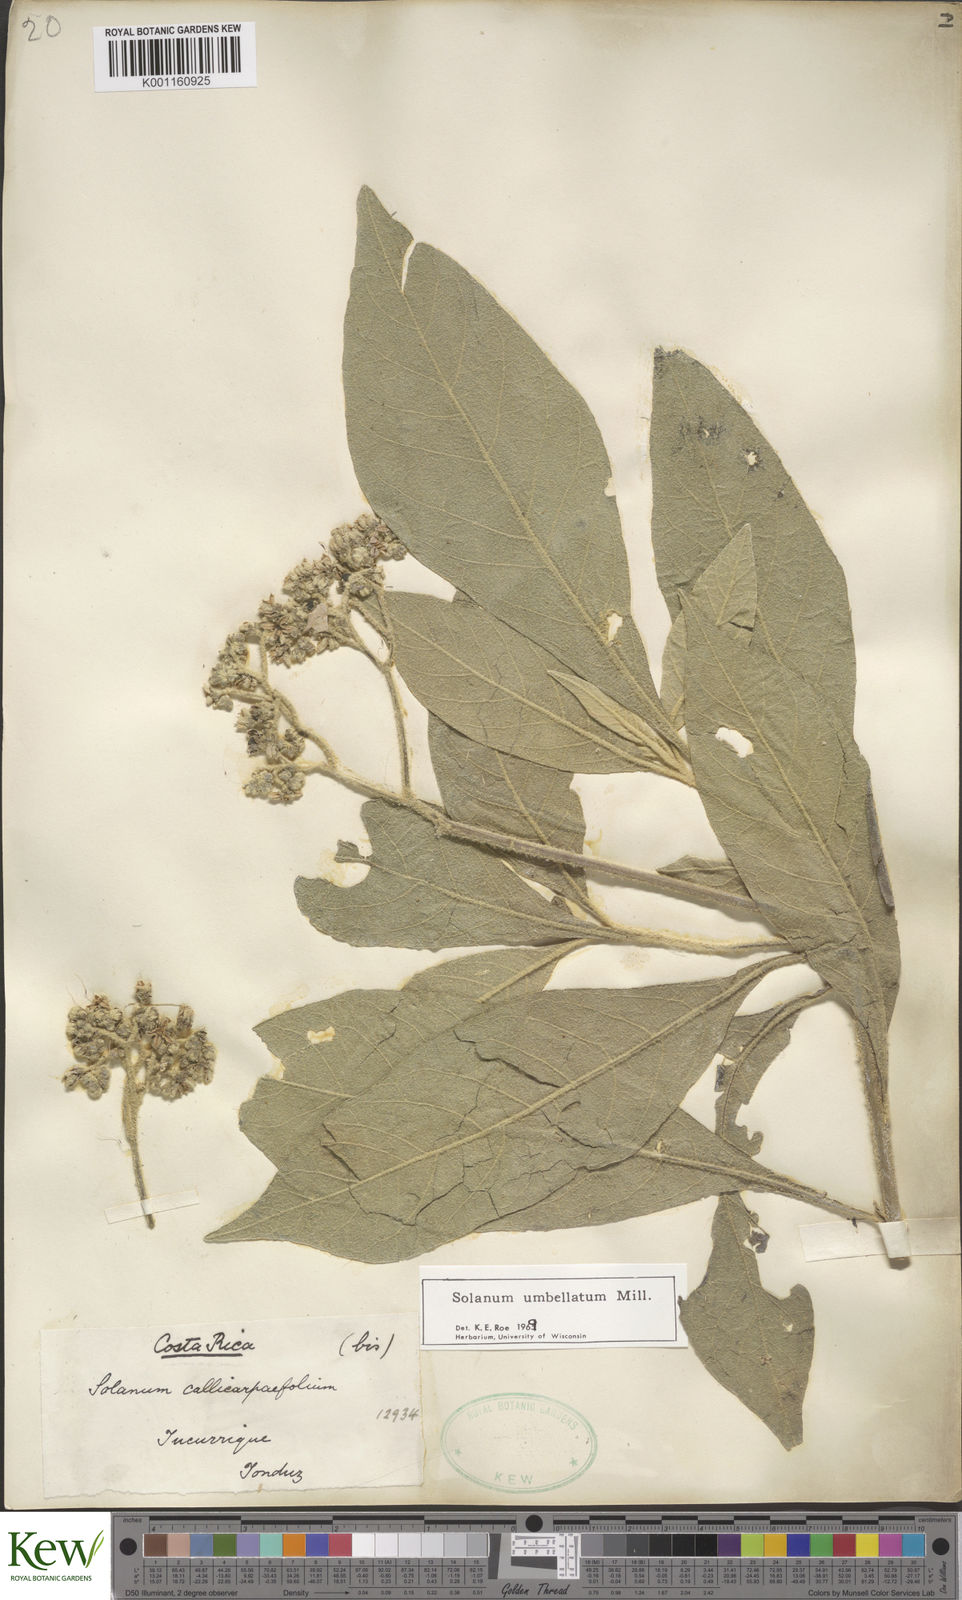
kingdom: Plantae
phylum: Tracheophyta
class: Magnoliopsida
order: Solanales
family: Solanaceae
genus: Solanum
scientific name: Solanum umbellatum
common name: Nightshade
